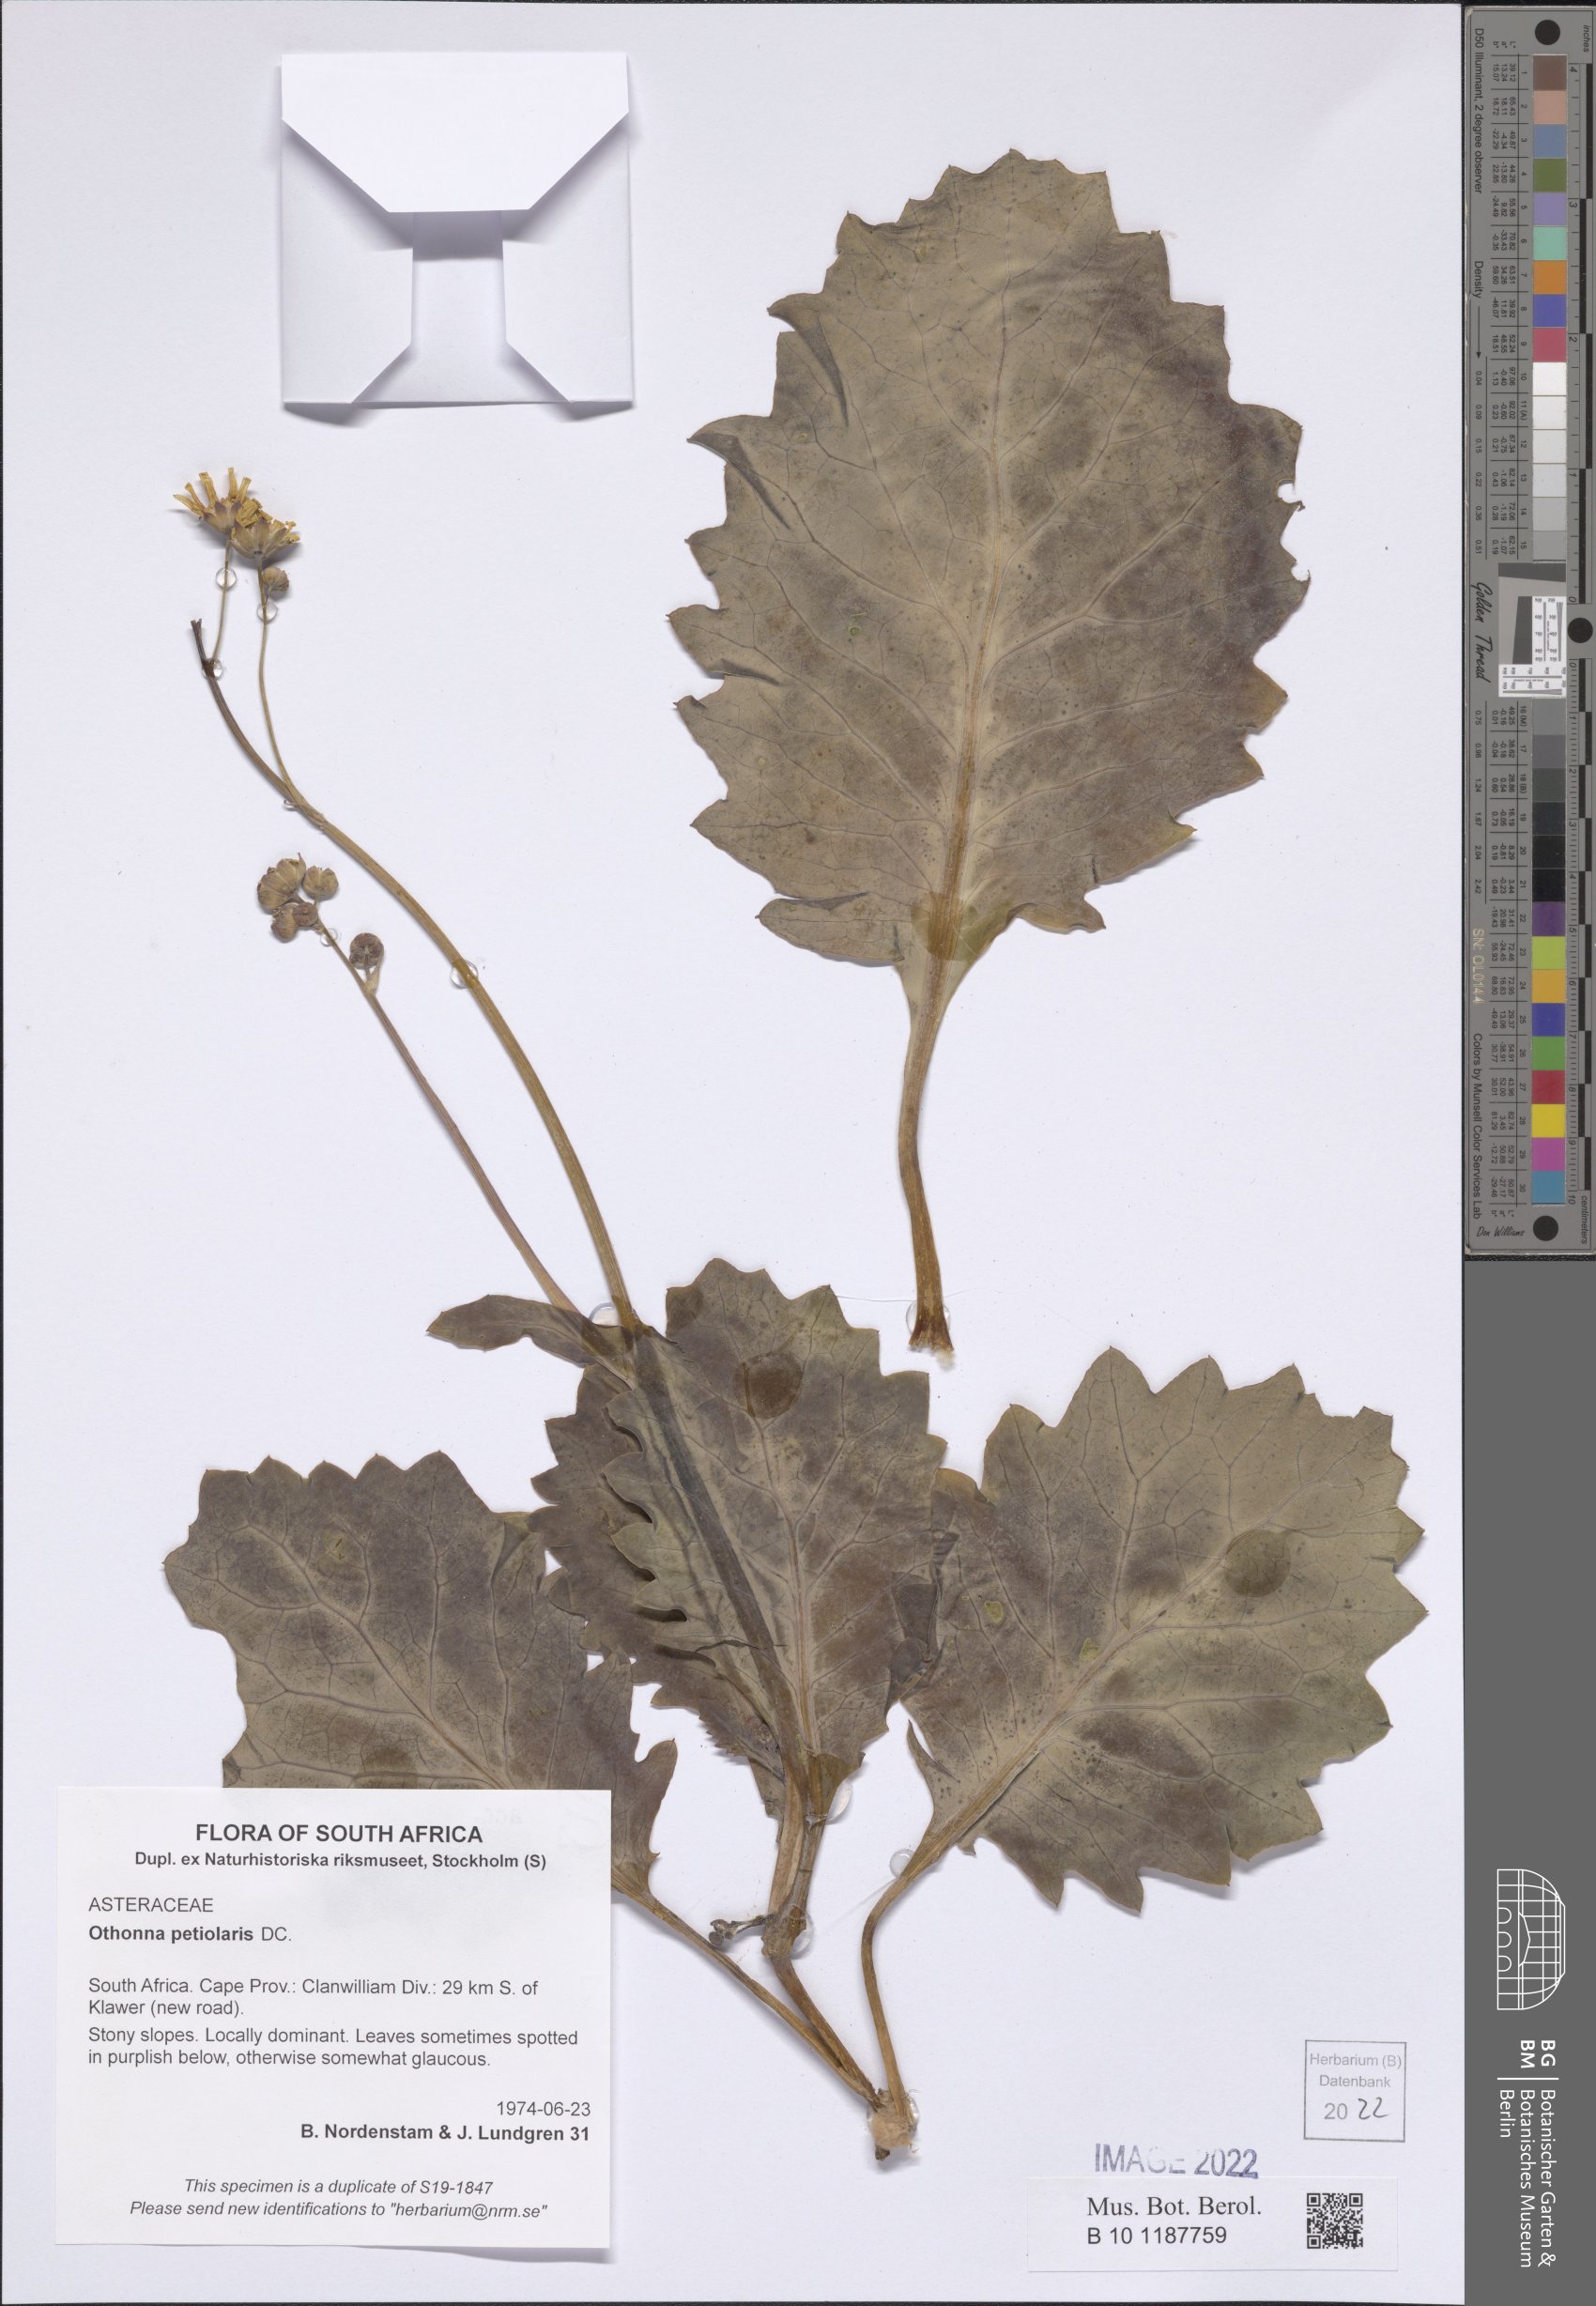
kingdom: Plantae
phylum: Tracheophyta
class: Magnoliopsida
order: Asterales
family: Asteraceae
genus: Othonna
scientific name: Othonna petiolaris
